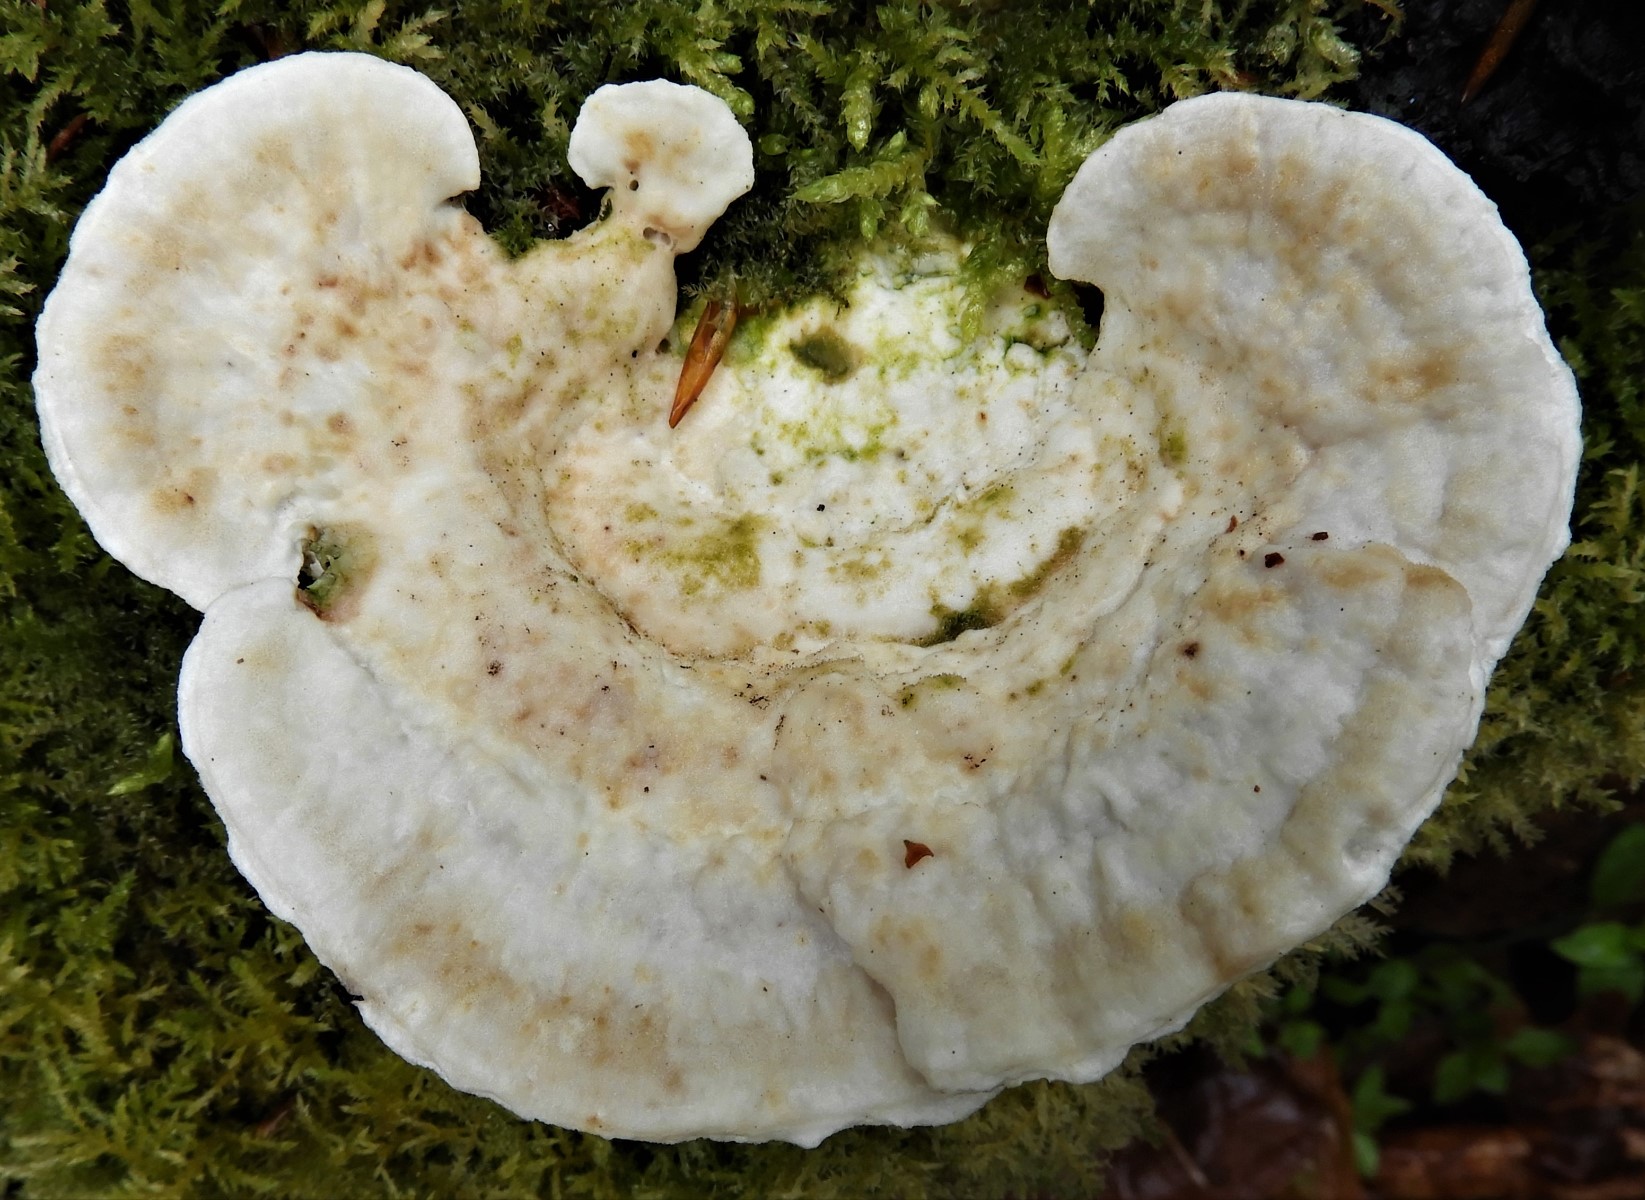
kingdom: Fungi
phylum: Basidiomycota
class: Agaricomycetes
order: Polyporales
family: Polyporaceae
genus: Trametes
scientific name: Trametes gibbosa
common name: puklet læderporesvamp
